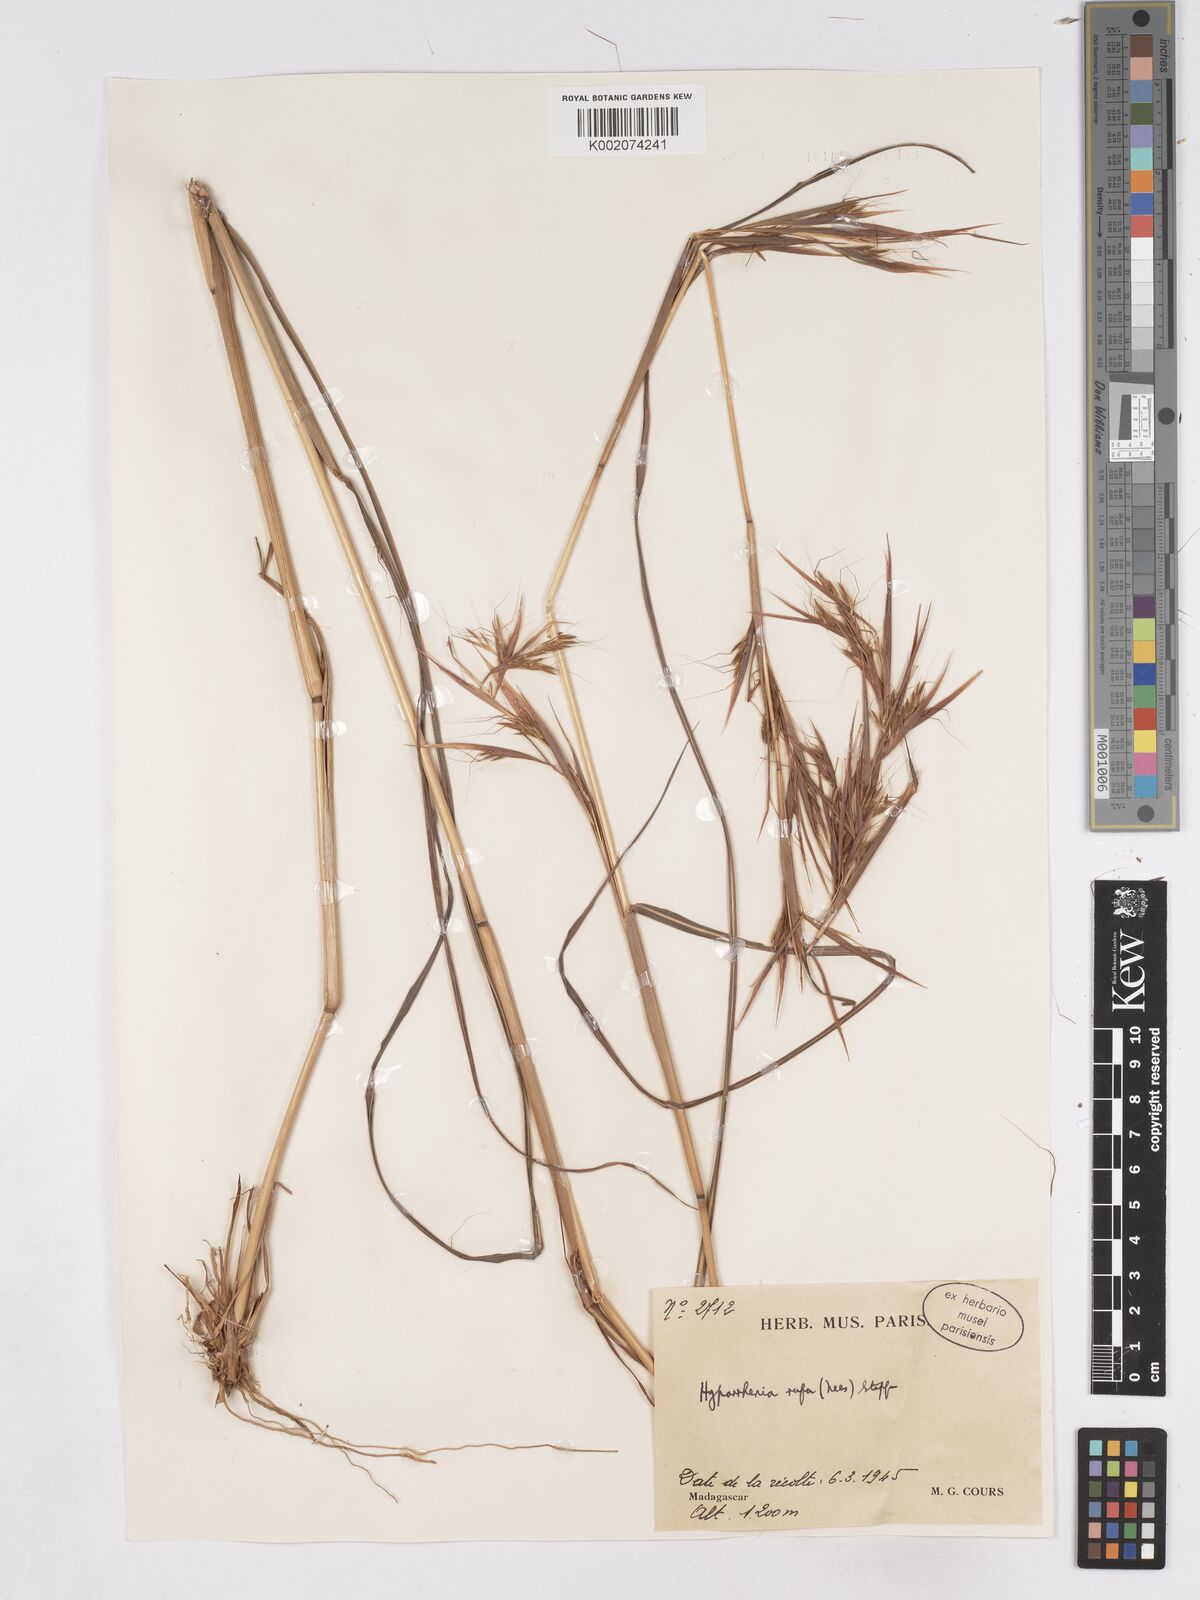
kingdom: Plantae
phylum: Tracheophyta
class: Liliopsida
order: Poales
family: Poaceae
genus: Hyparrhenia
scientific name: Hyparrhenia rufa
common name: Jaraguagrass
